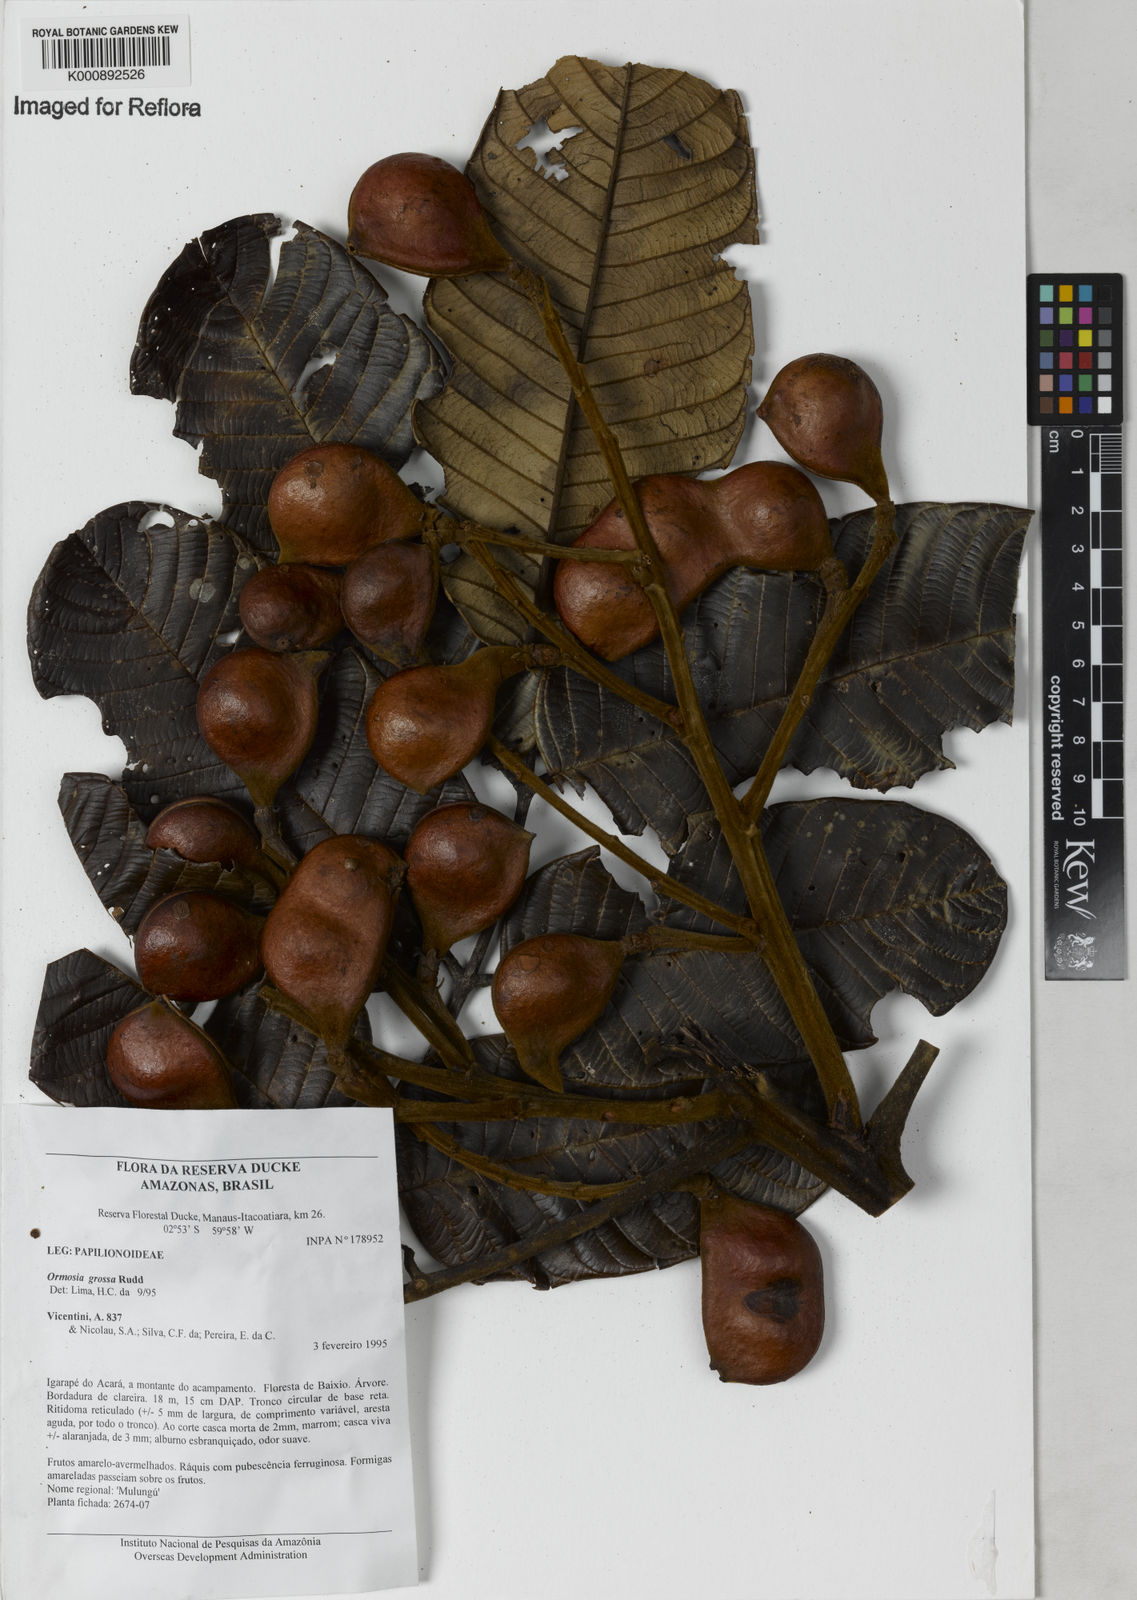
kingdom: Plantae
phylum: Tracheophyta
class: Magnoliopsida
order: Fabales
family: Fabaceae
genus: Ormosia
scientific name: Ormosia grossa
